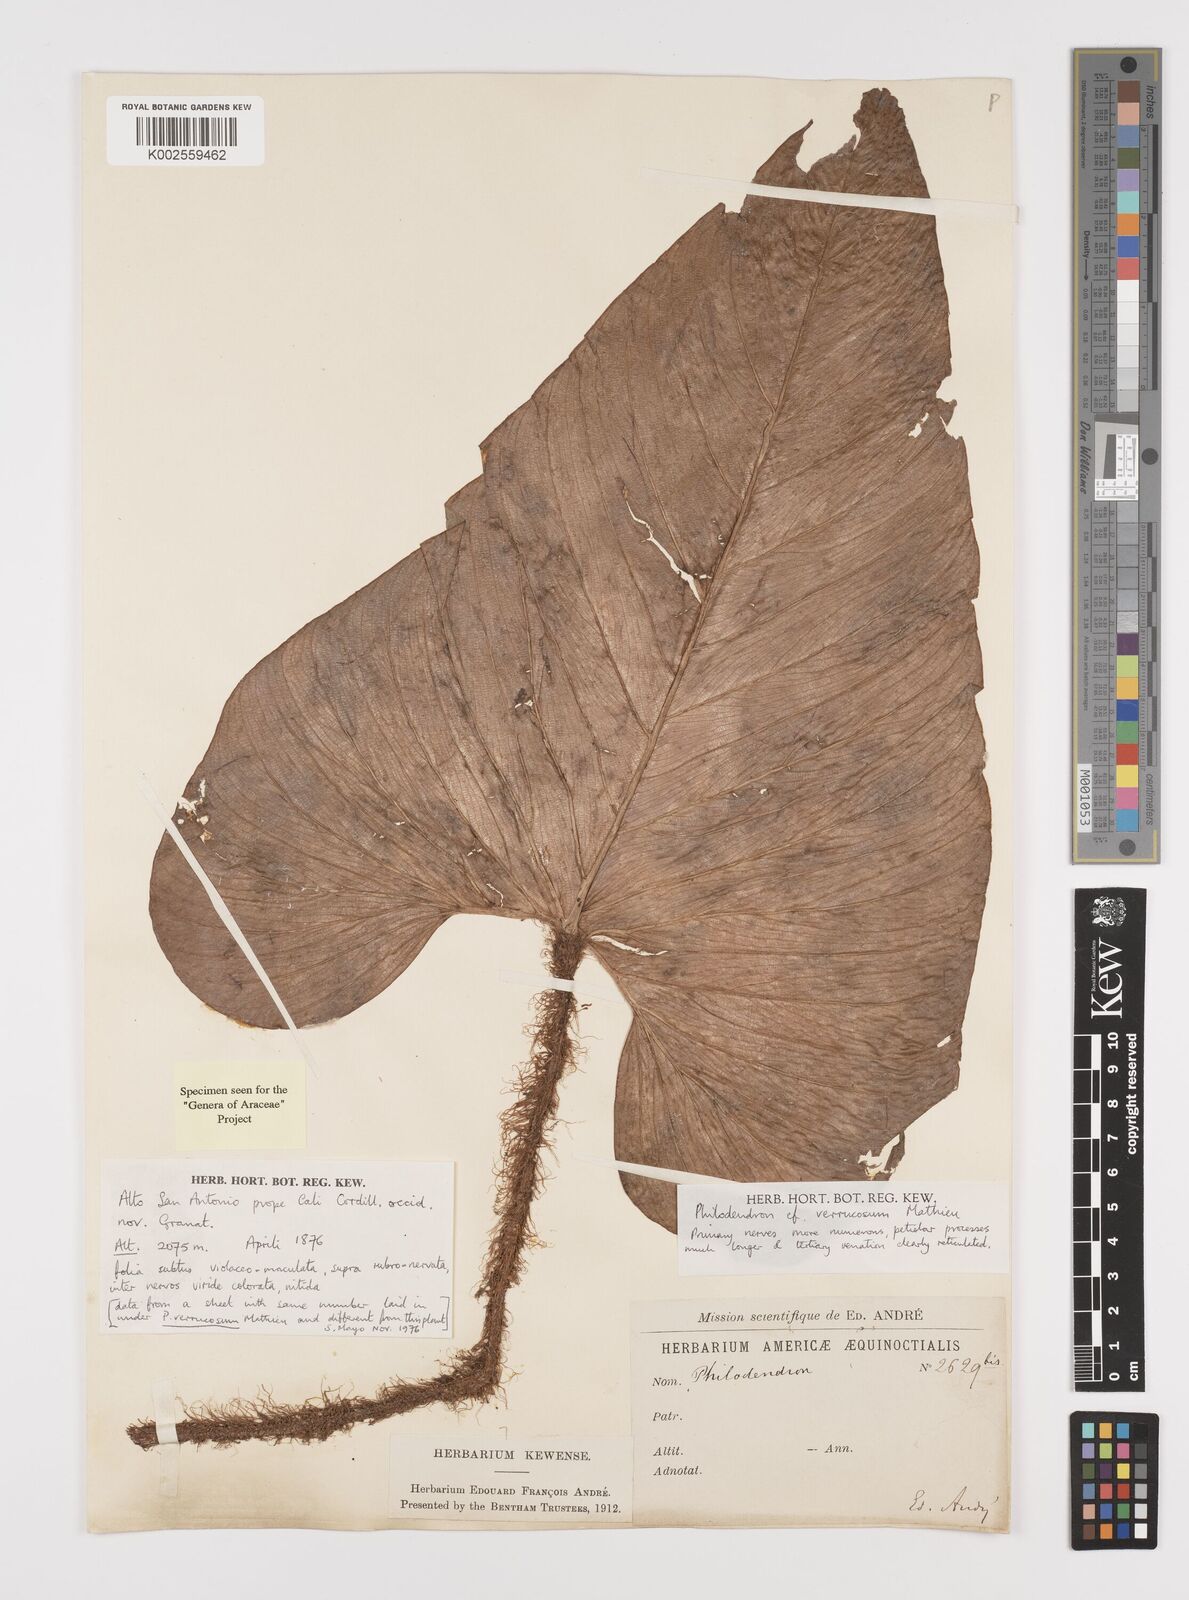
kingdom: Plantae
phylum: Tracheophyta
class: Liliopsida
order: Alismatales
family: Araceae
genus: Philodendron
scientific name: Philodendron verrucosum
